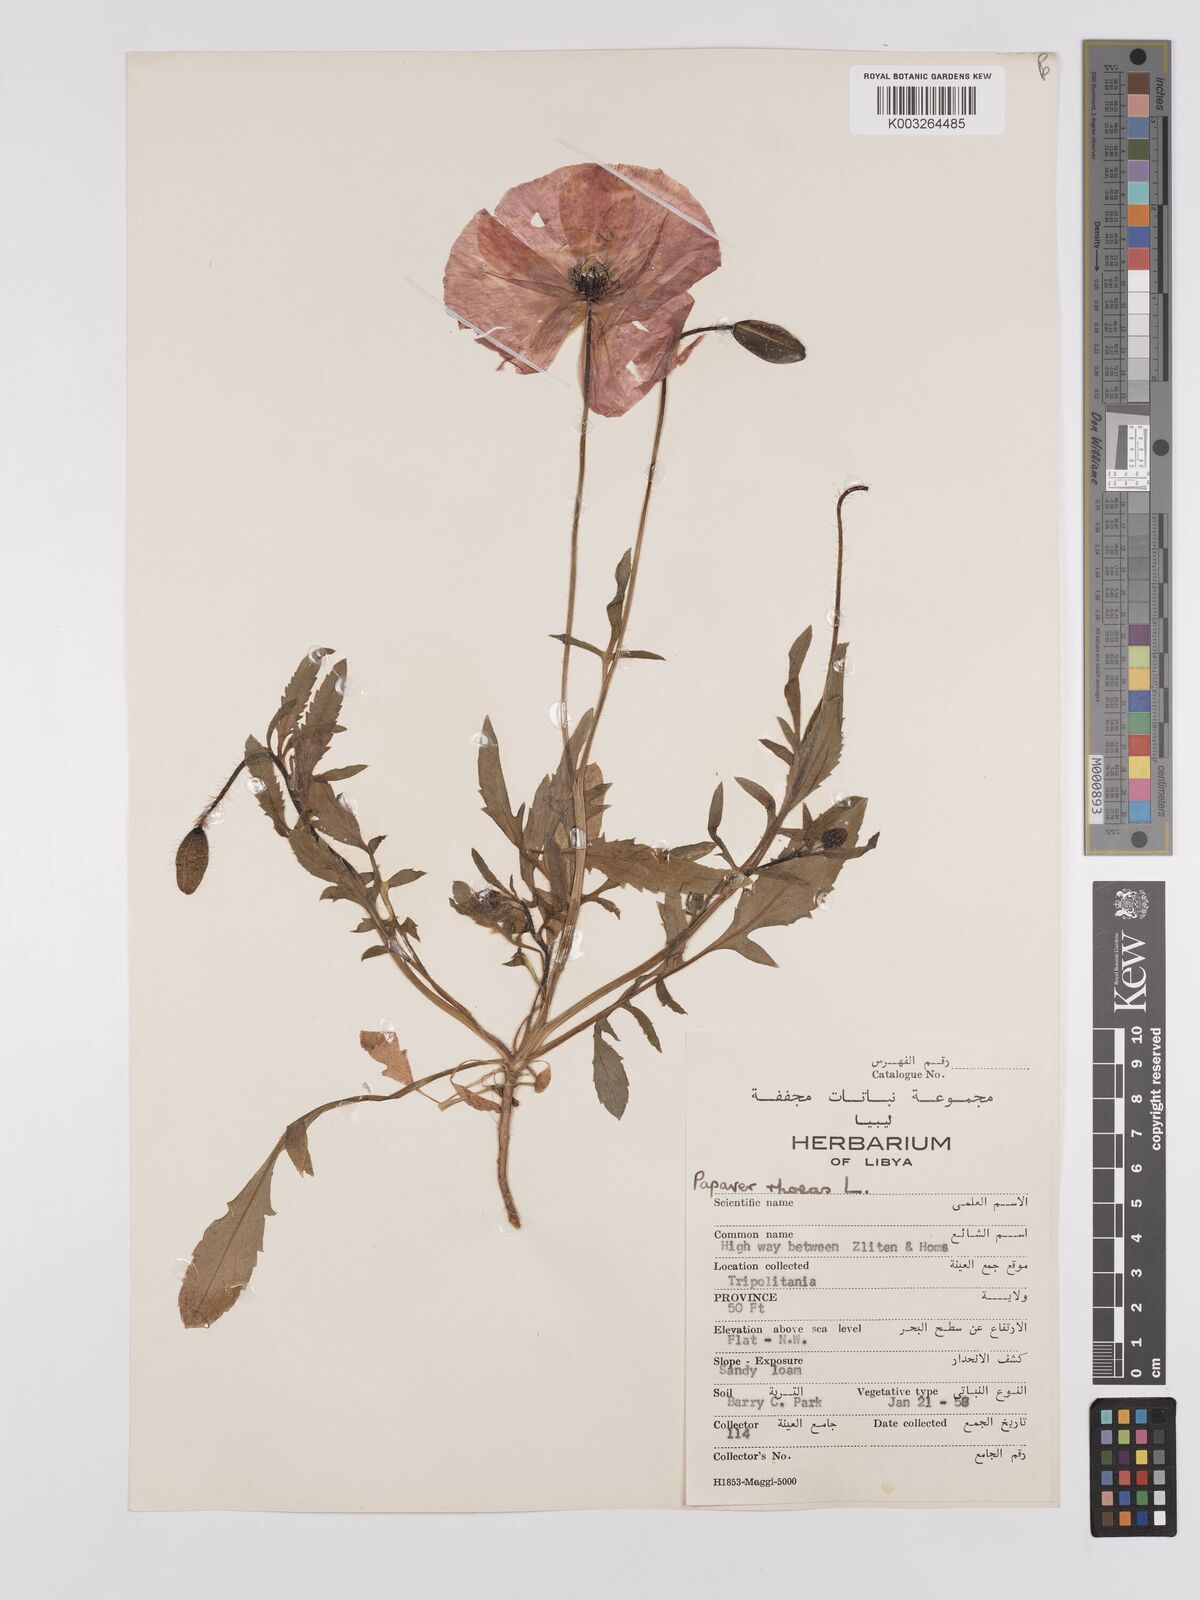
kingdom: Plantae
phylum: Tracheophyta
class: Magnoliopsida
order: Ranunculales
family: Papaveraceae
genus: Papaver
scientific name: Papaver rhoeas
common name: Corn poppy
